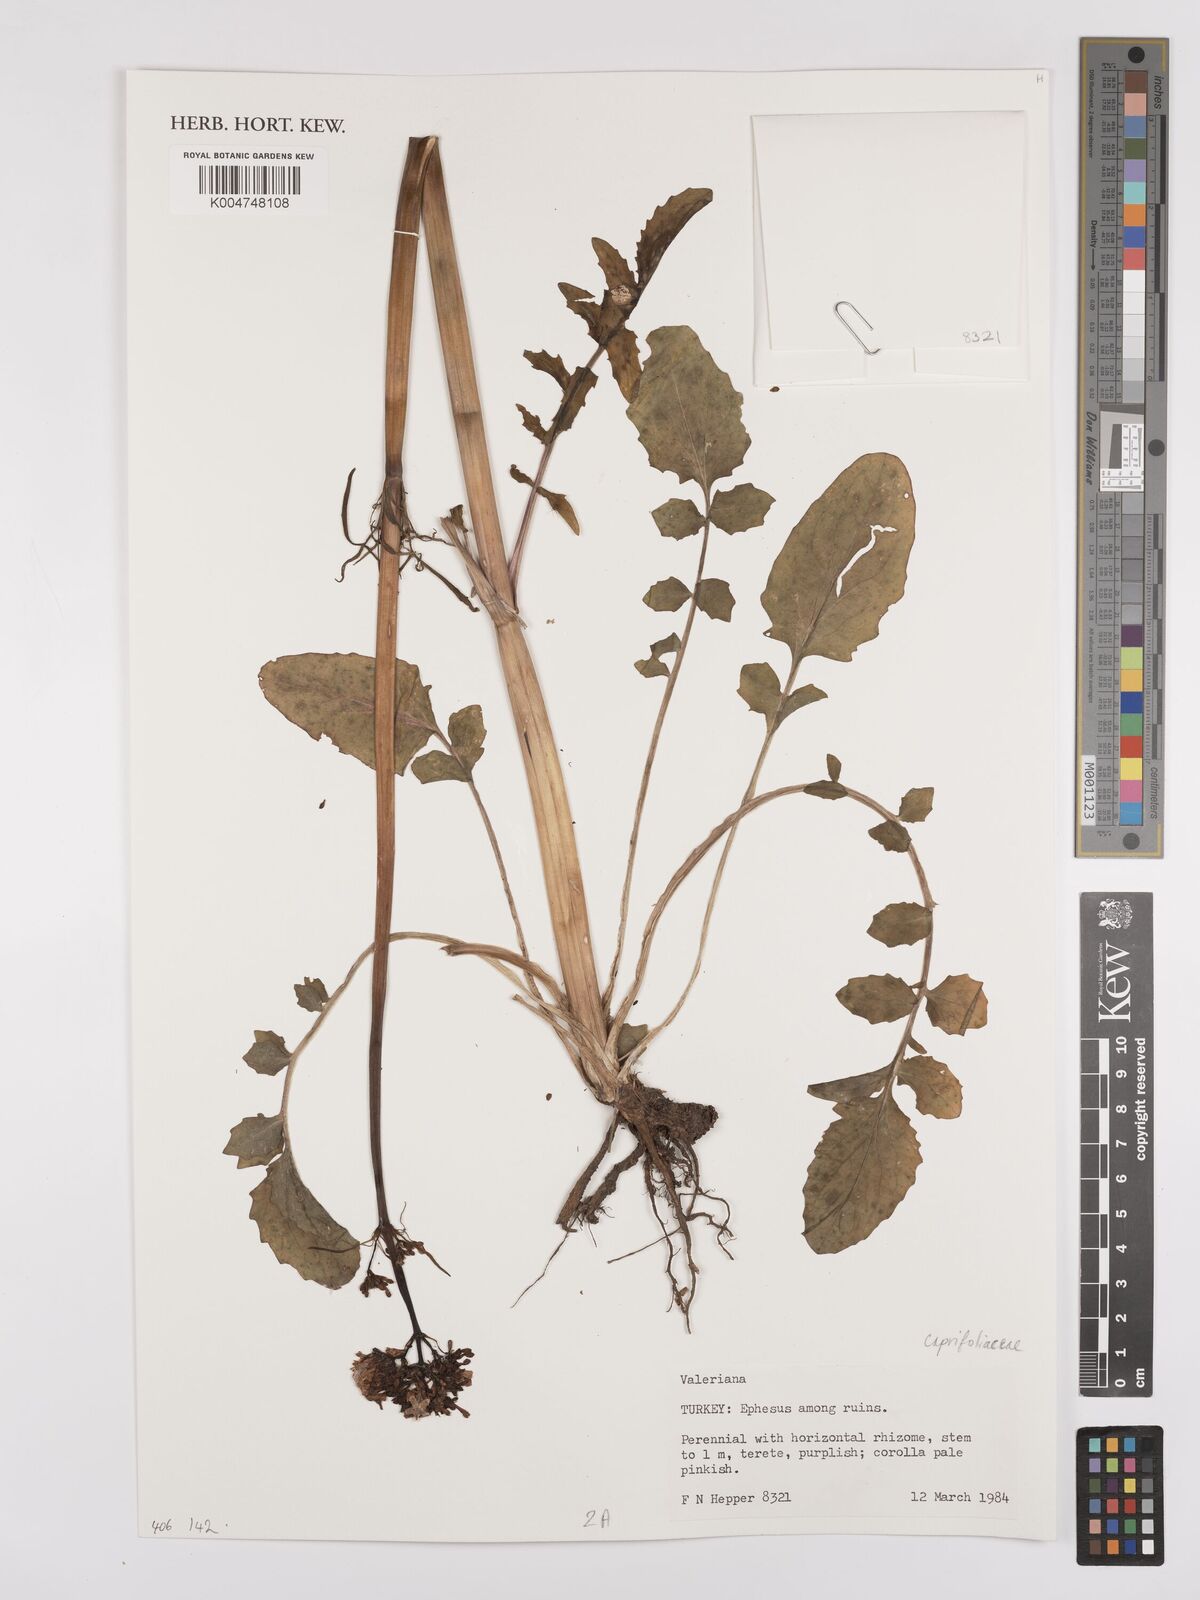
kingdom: Plantae
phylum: Tracheophyta
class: Magnoliopsida
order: Dipsacales
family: Caprifoliaceae
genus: Valeriana
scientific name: Valeriana
